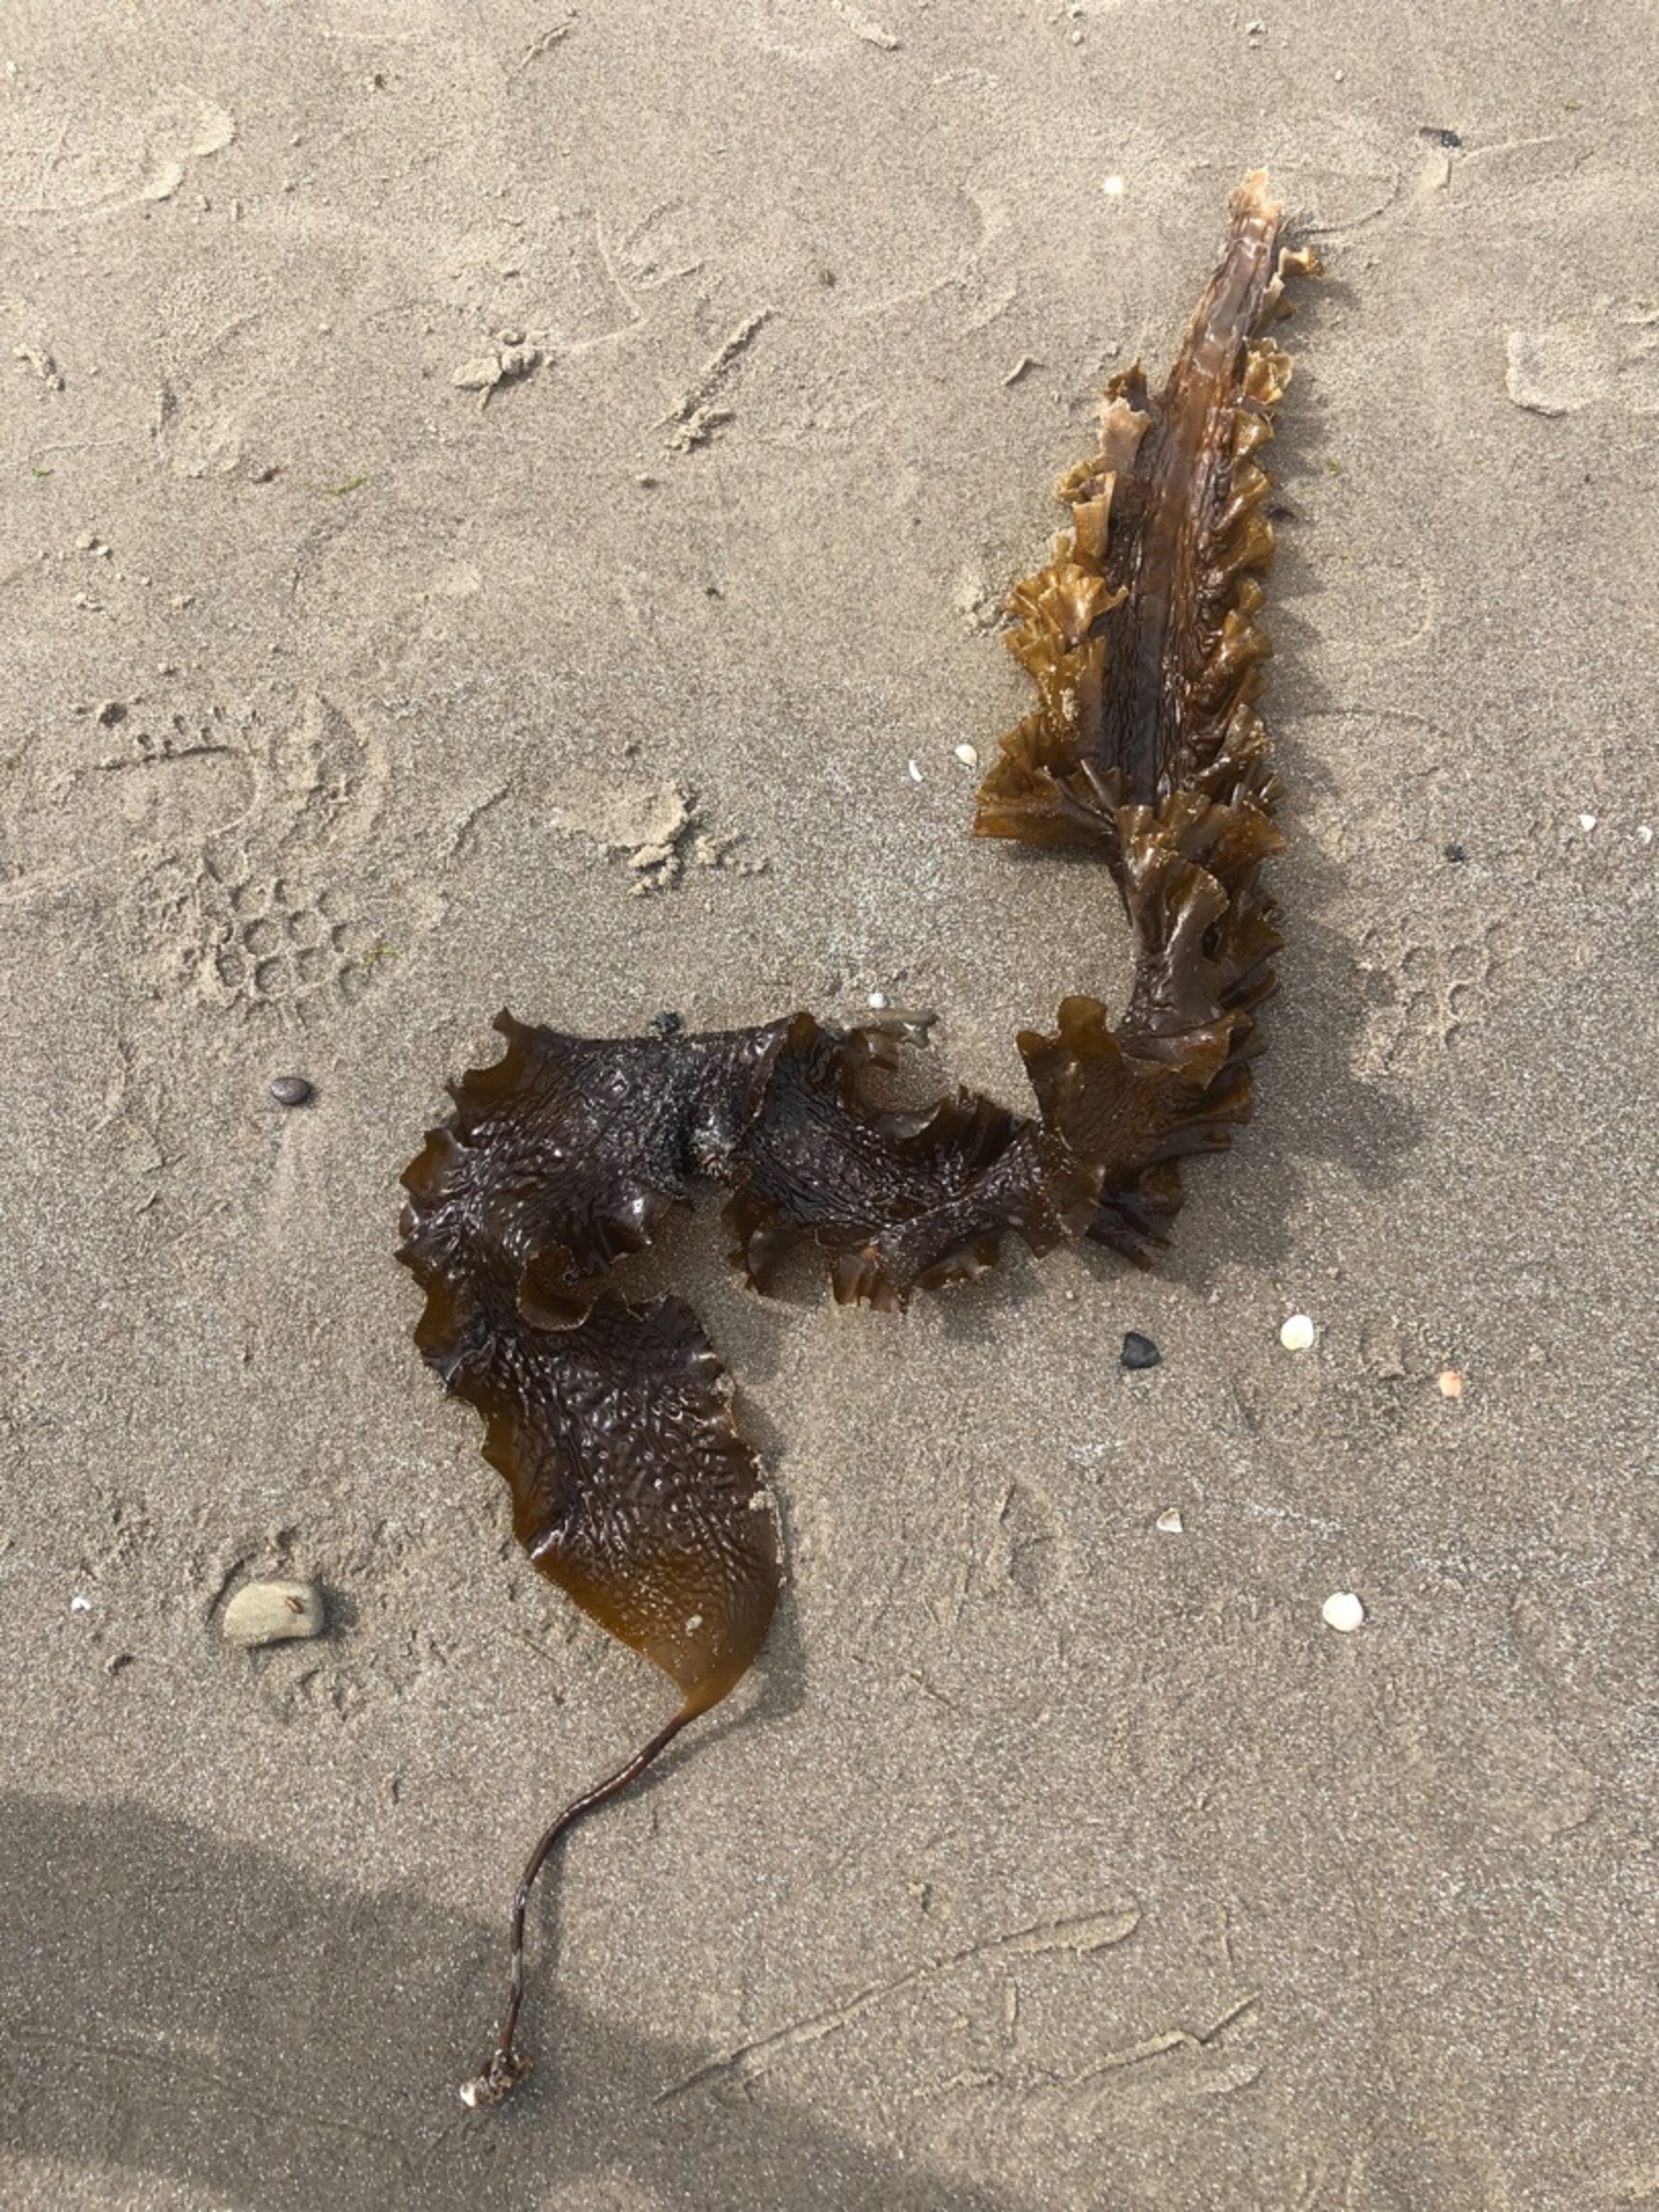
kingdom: Chromista
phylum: Ochrophyta
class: Phaeophyceae
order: Laminariales
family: Laminariaceae
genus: Saccharina
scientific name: Saccharina latissima
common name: Sukkertang
